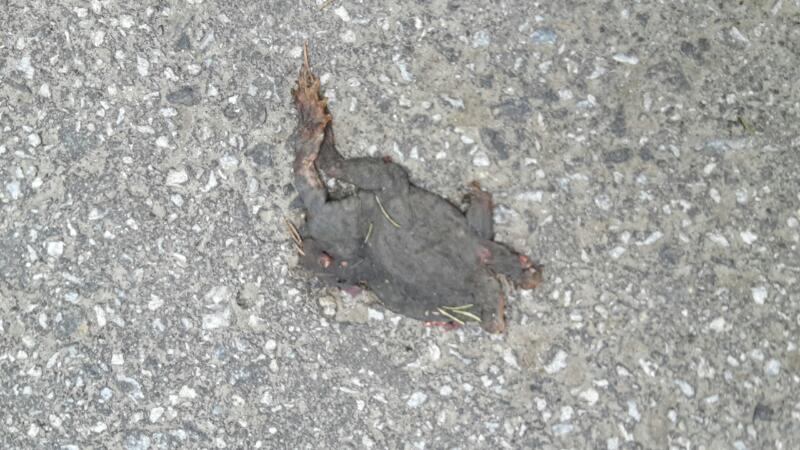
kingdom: Animalia
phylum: Chordata
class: Amphibia
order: Anura
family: Bufonidae
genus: Bufo
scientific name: Bufo bufo
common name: Common toad
